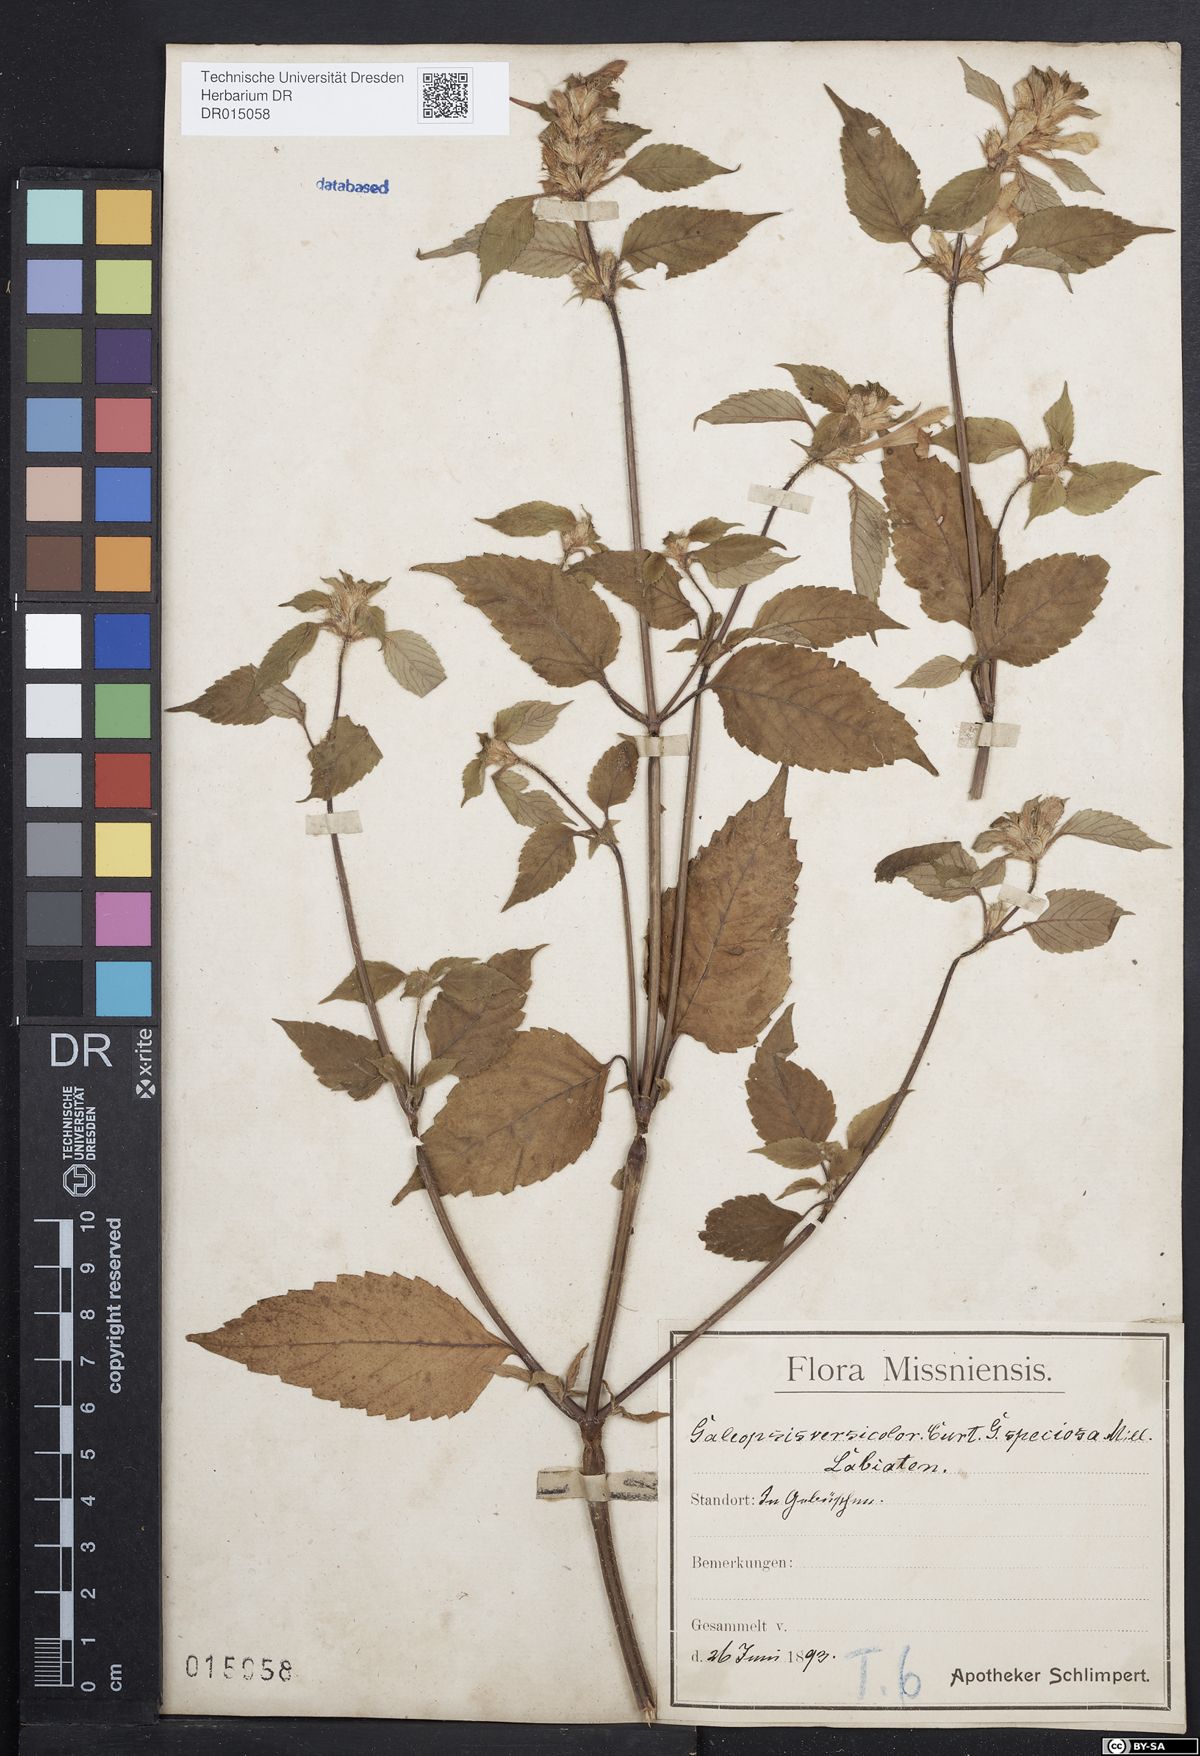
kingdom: Plantae
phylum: Tracheophyta
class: Magnoliopsida
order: Lamiales
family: Lamiaceae
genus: Galeopsis
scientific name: Galeopsis speciosa
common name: Large-flowered hemp-nettle
